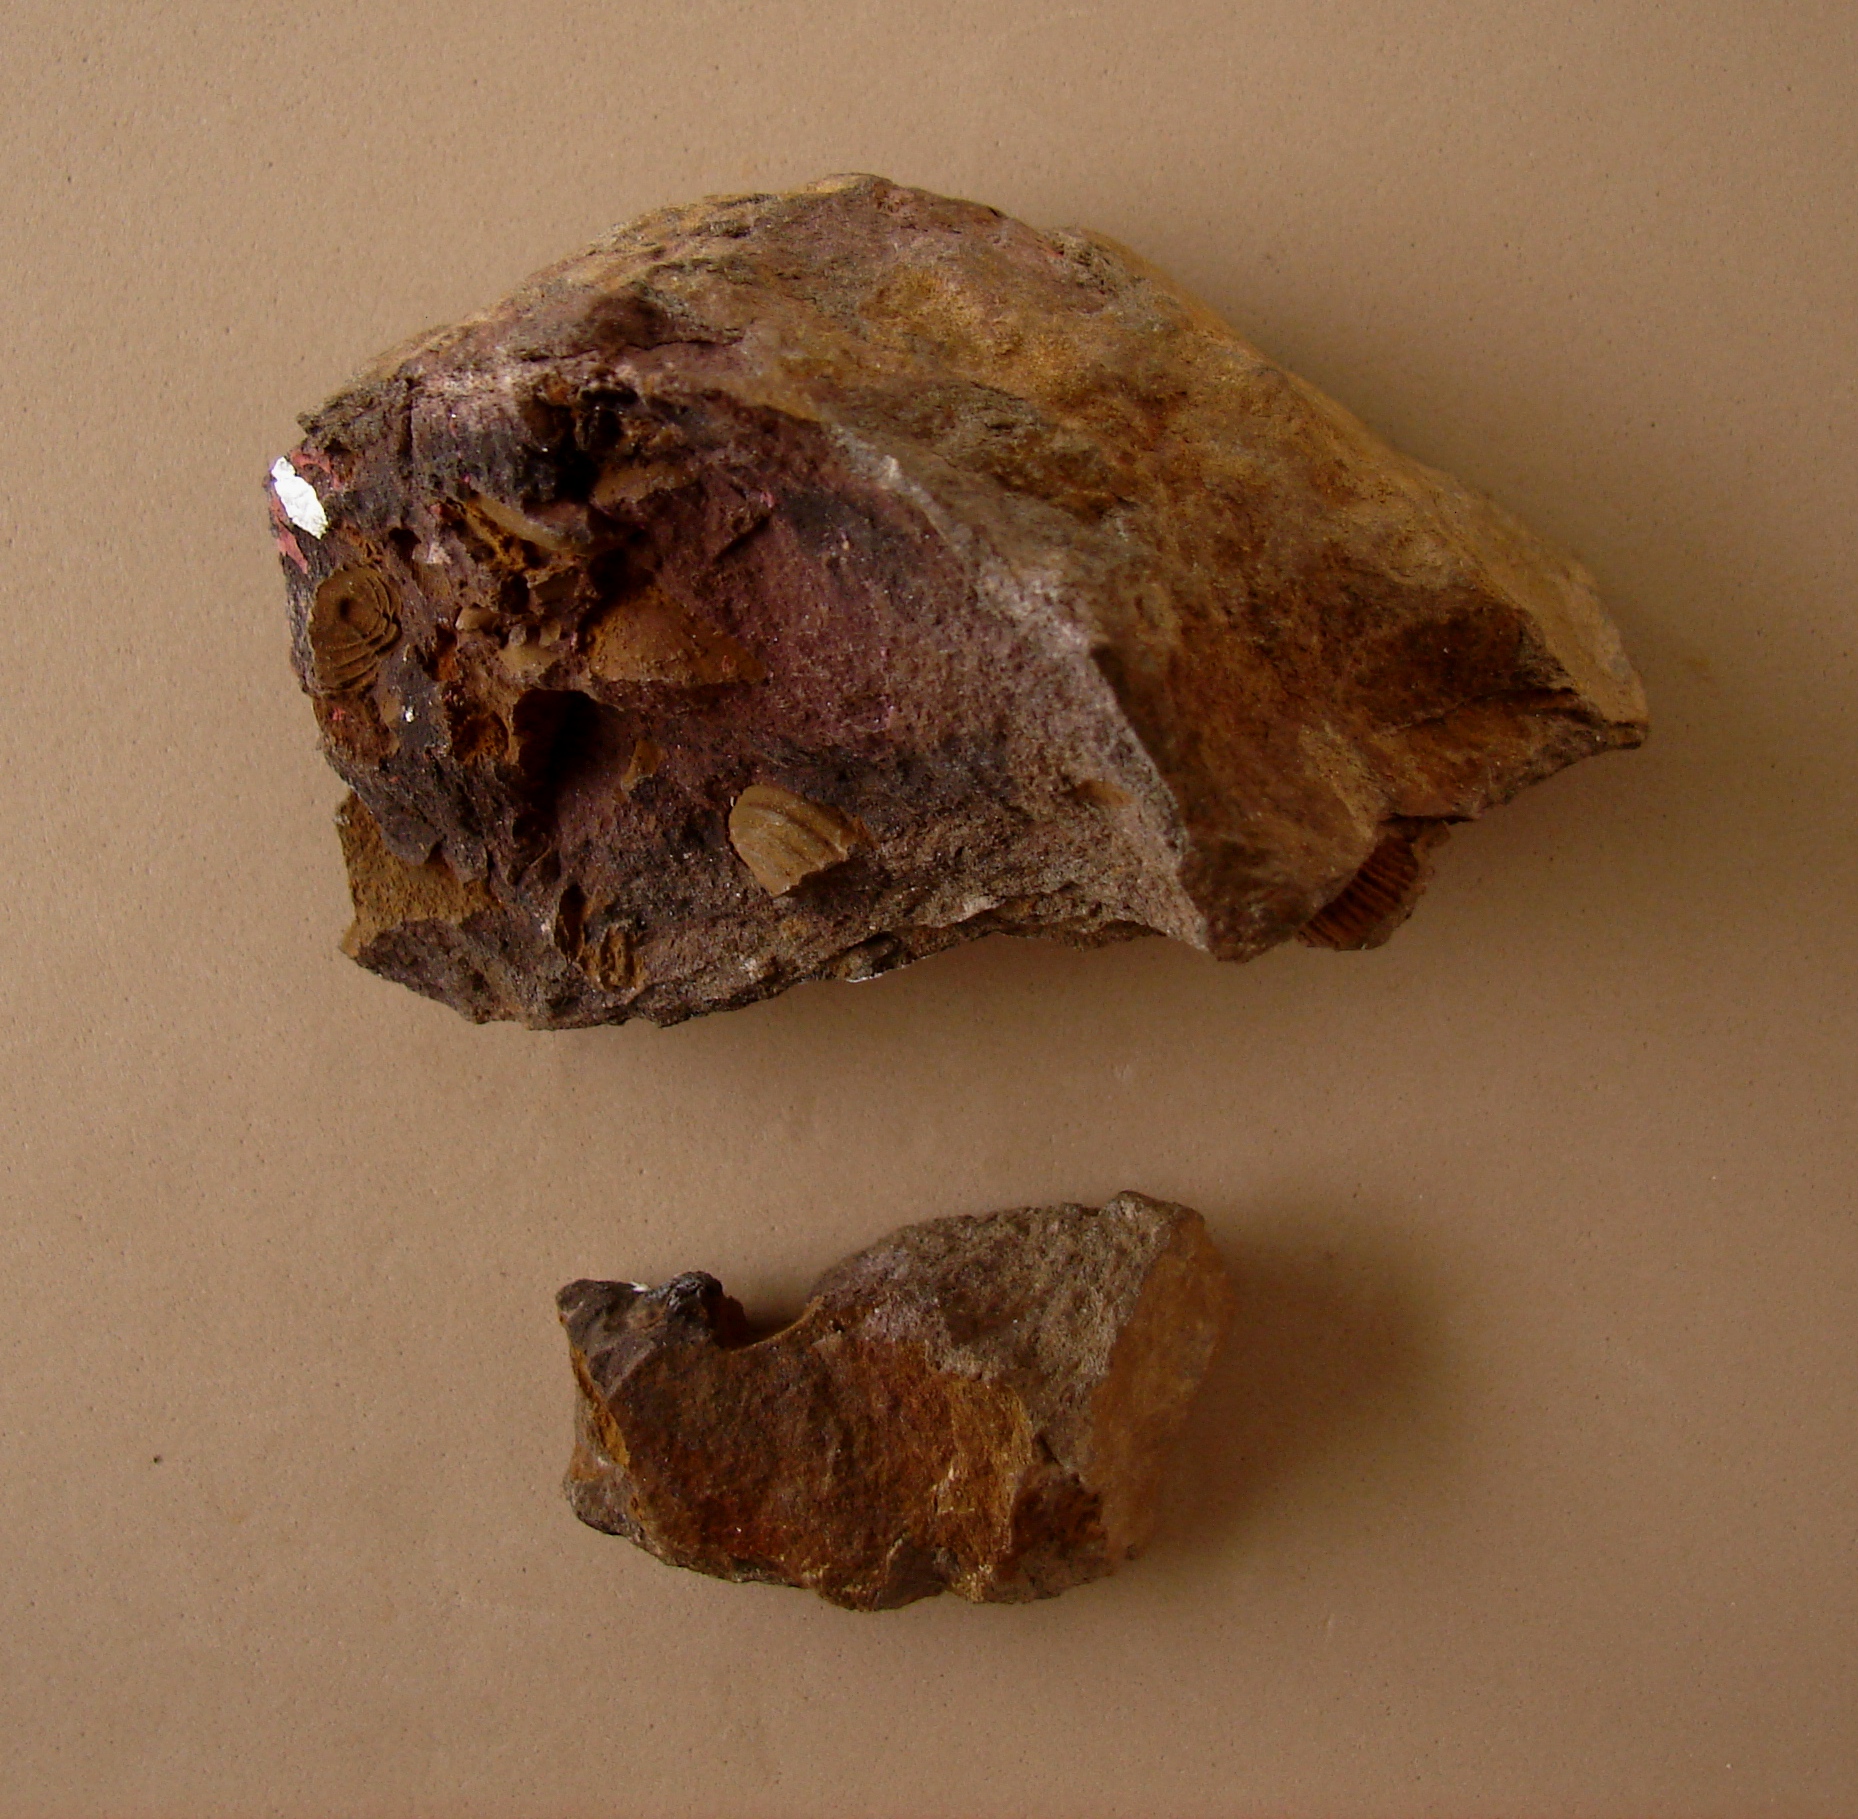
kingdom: Animalia
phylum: Arthropoda
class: Trilobita
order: Phacopida
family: Acastidae
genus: Acastava
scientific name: Acastava faberi
